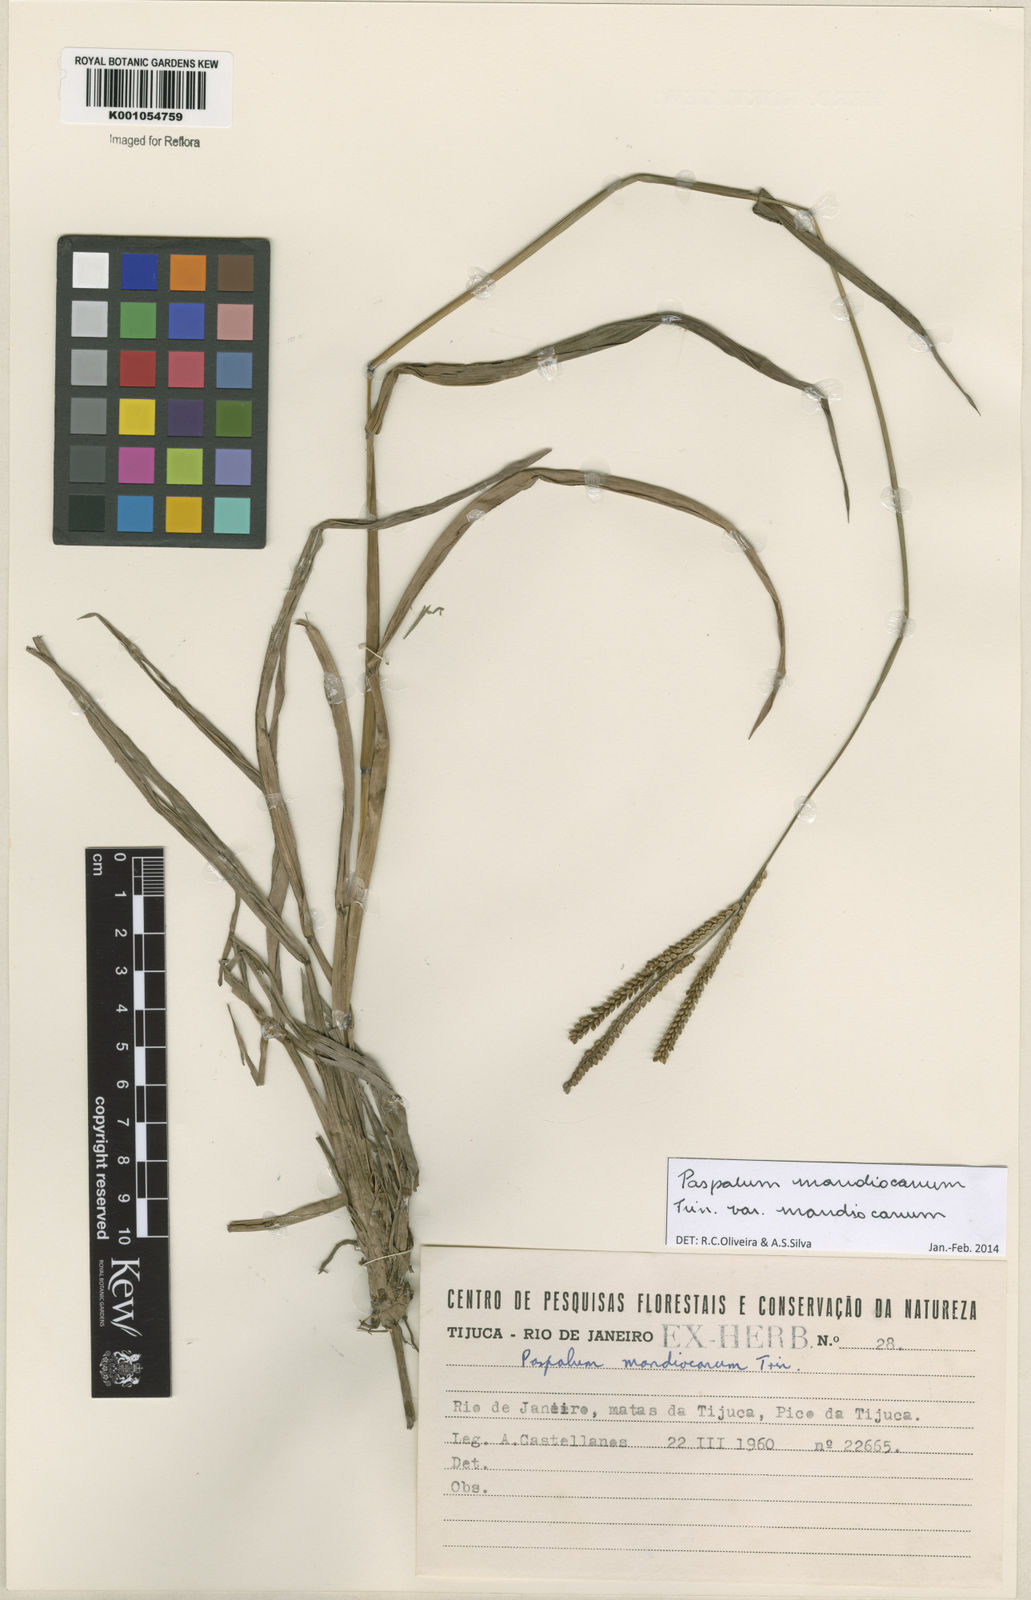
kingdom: Plantae
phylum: Tracheophyta
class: Liliopsida
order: Poales
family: Poaceae
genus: Paspalum
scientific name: Paspalum mandiocanum
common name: Paspalum
